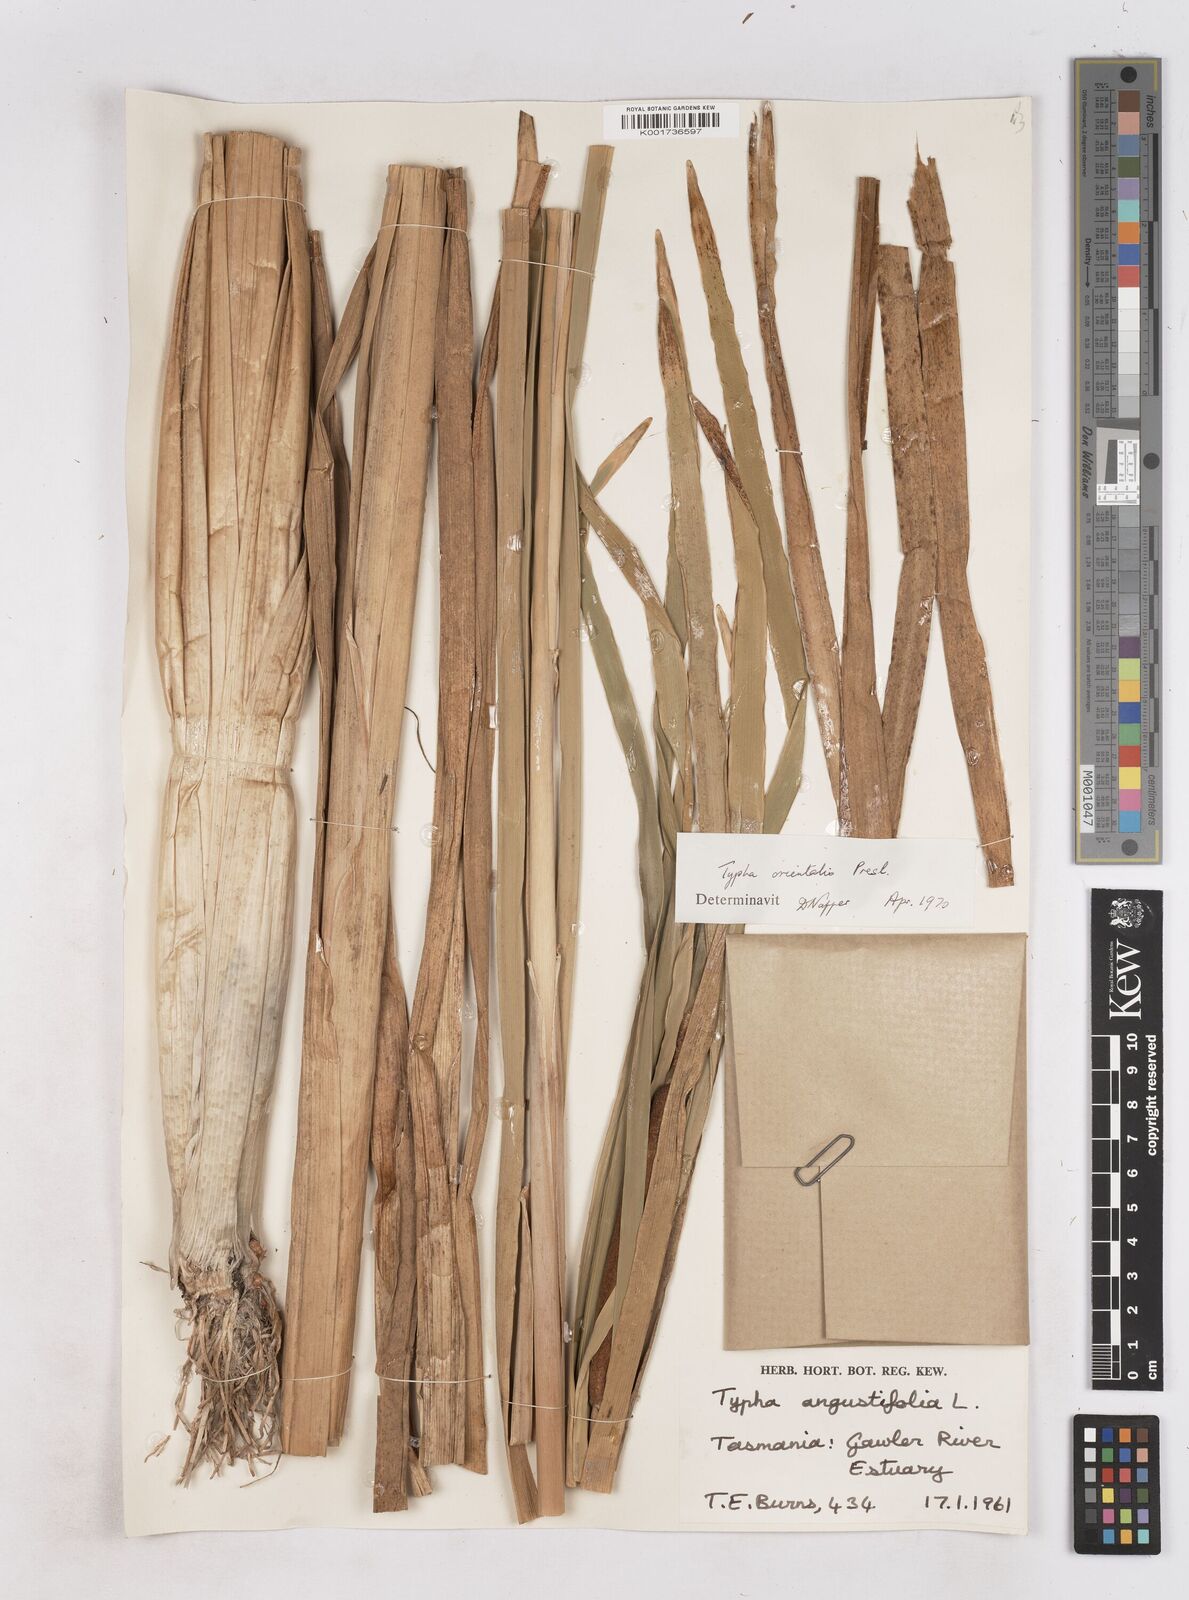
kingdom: Plantae
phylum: Tracheophyta
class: Liliopsida
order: Poales
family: Typhaceae
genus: Typha
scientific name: Typha orientalis
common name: Bullrush
